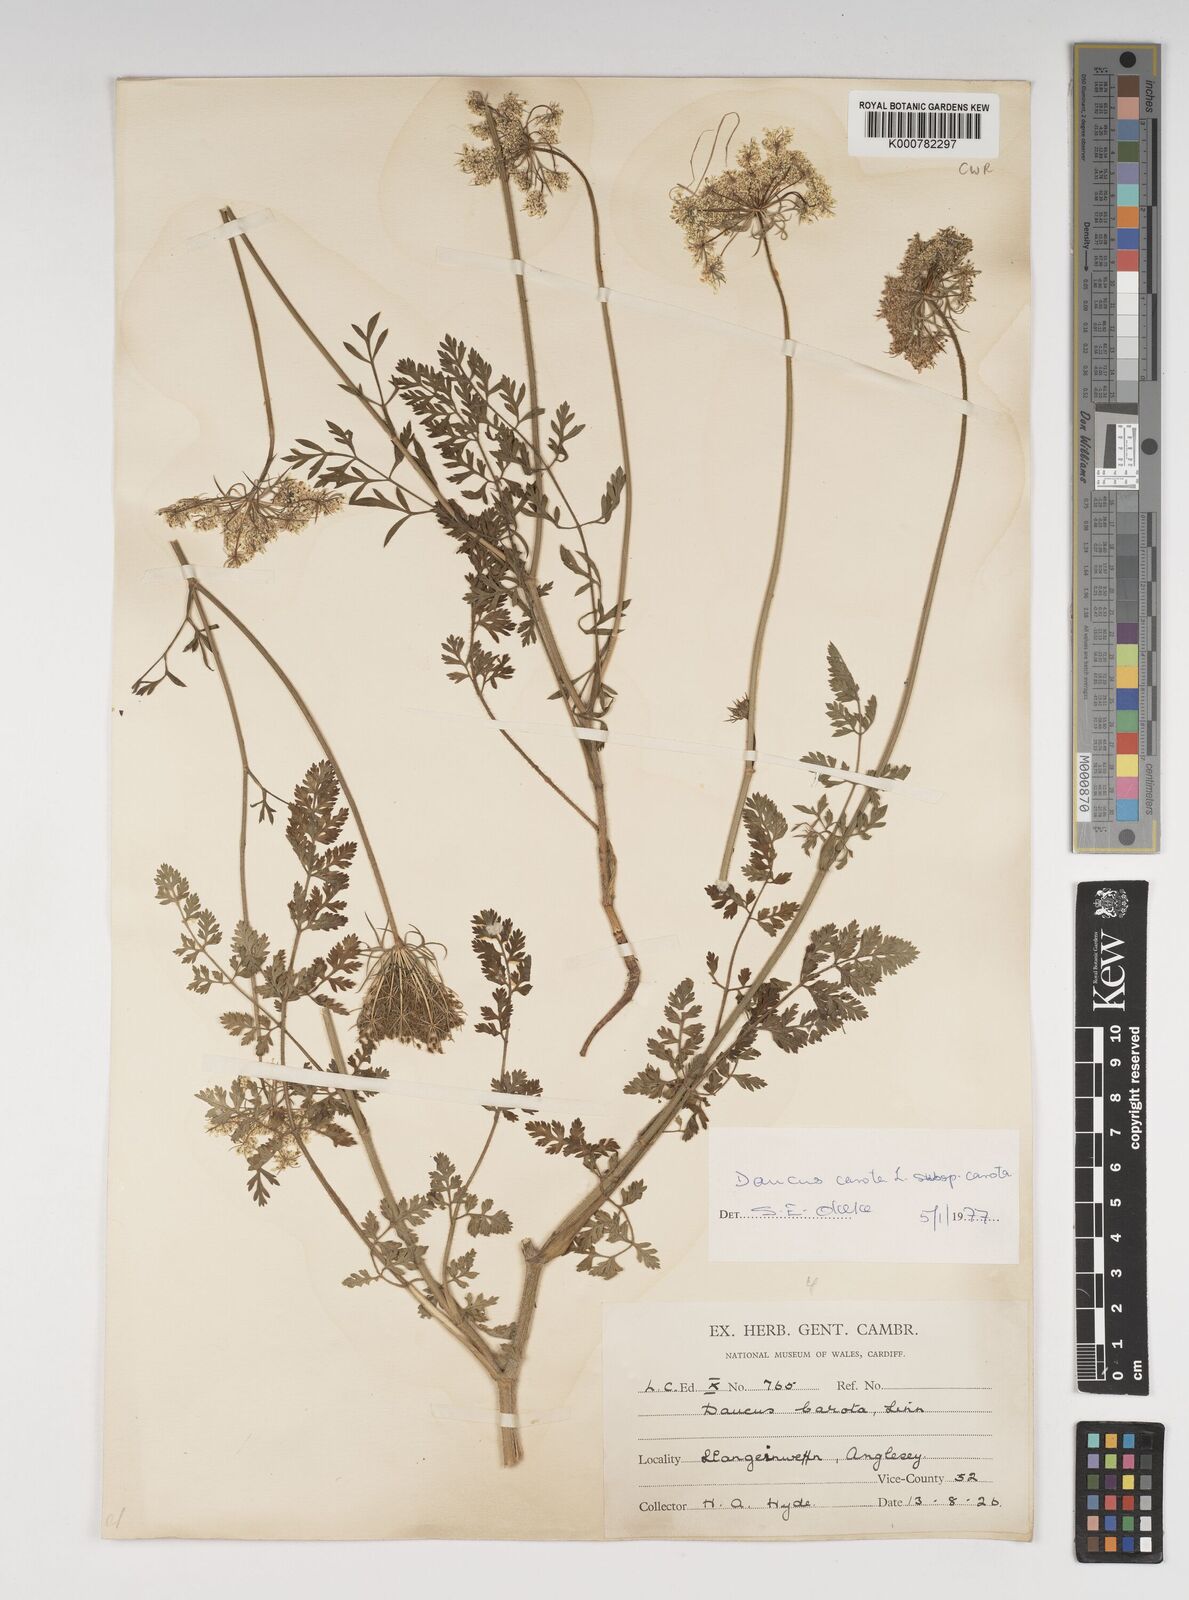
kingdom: Plantae
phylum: Tracheophyta
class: Magnoliopsida
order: Apiales
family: Apiaceae
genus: Daucus
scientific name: Daucus carota
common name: Wild carrot
